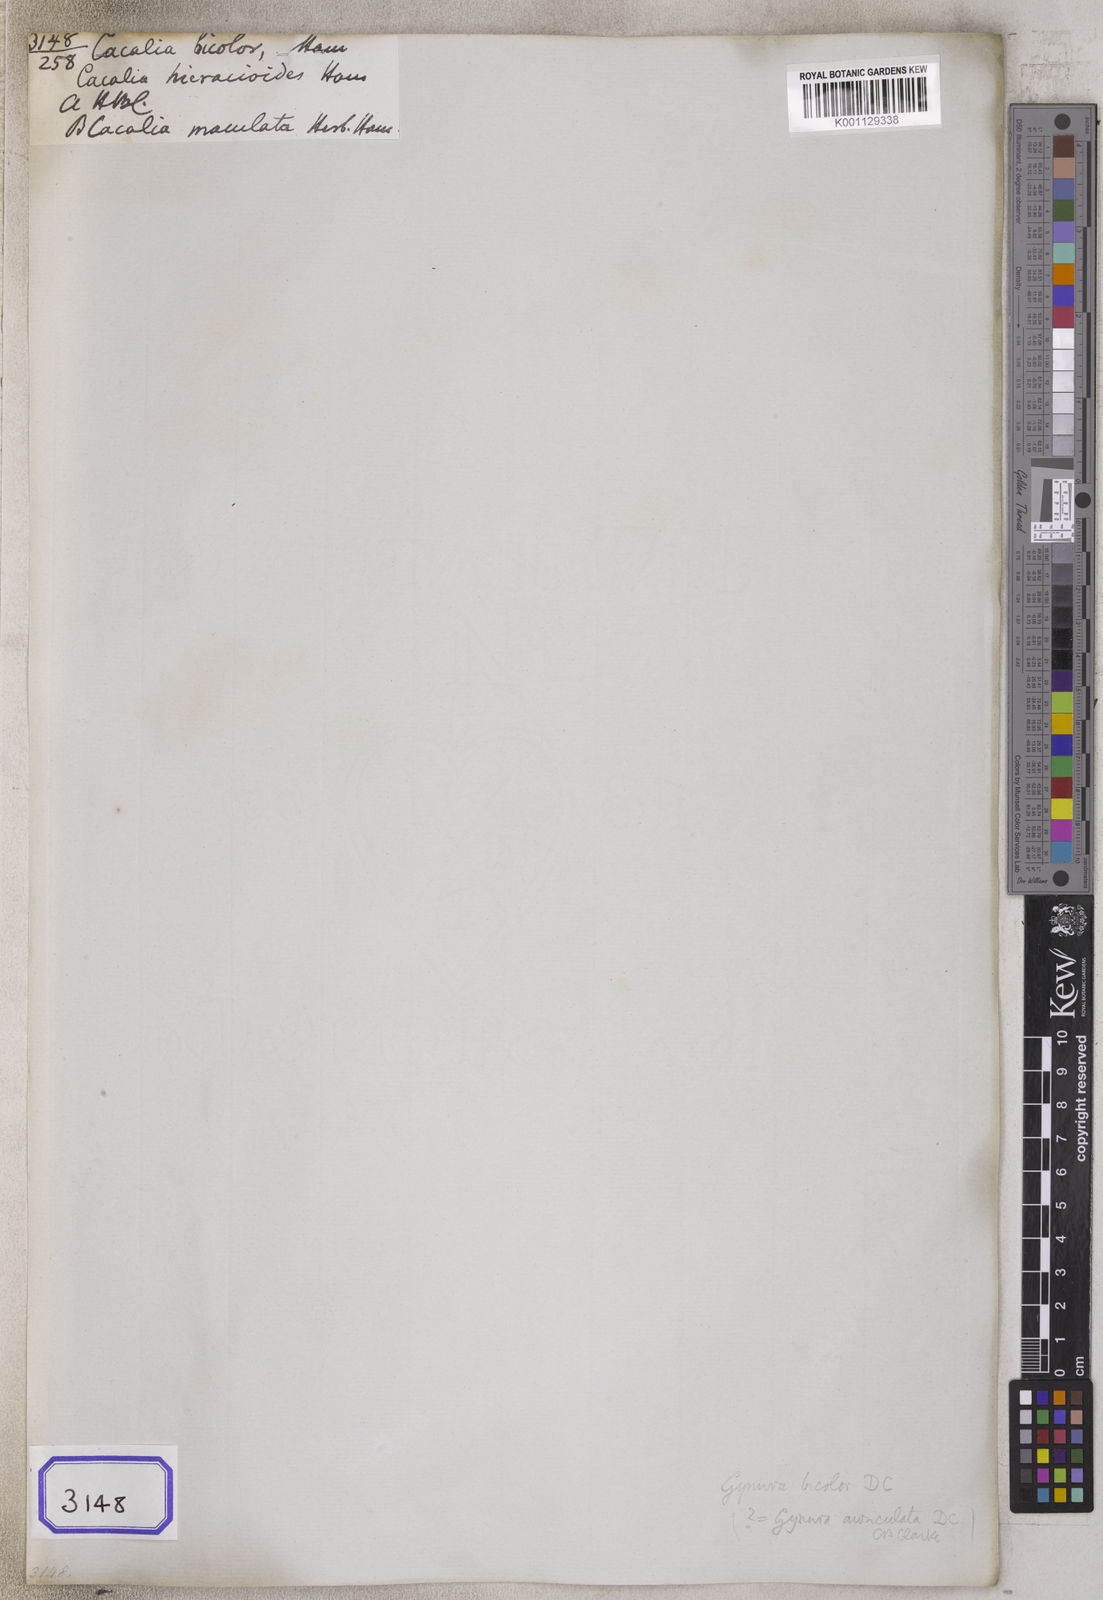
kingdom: Plantae
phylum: Tracheophyta
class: Magnoliopsida
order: Asterales
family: Asteraceae
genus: Gynura
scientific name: Gynura bicolor
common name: Red-vegetable
